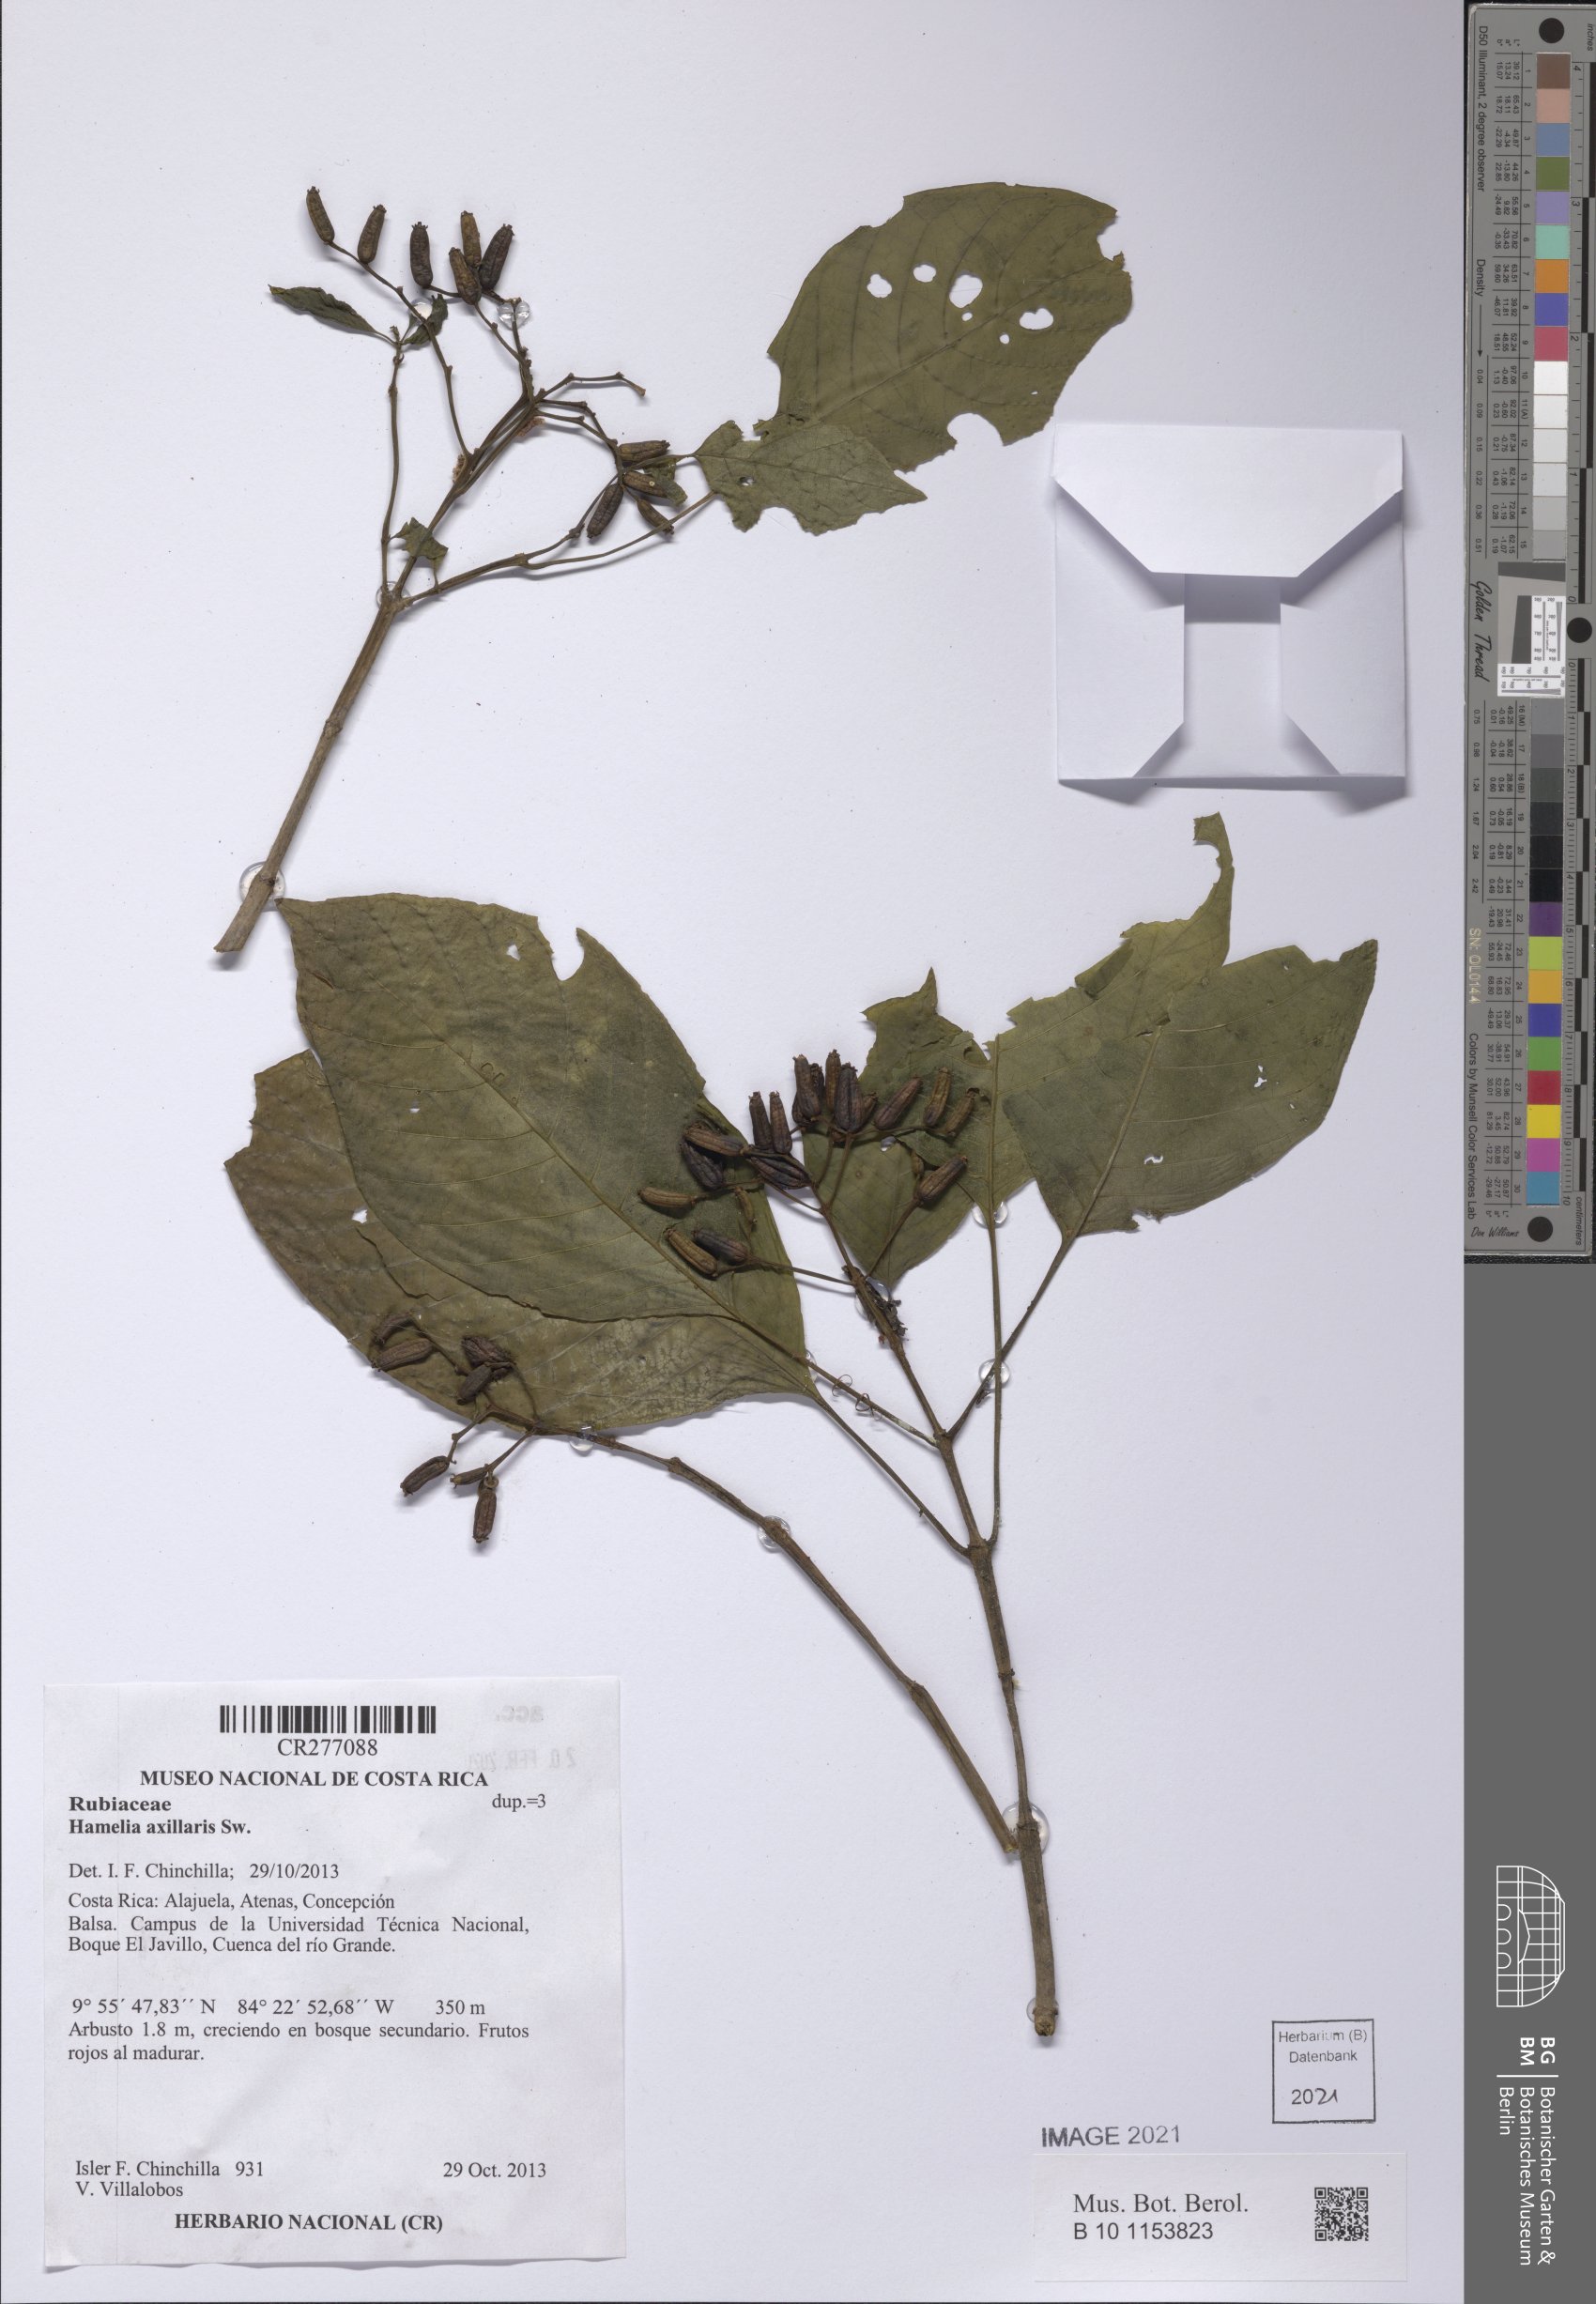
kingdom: Plantae
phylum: Tracheophyta
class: Magnoliopsida
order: Gentianales
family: Rubiaceae
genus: Hamelia
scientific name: Hamelia axillaris
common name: Balsamillo
